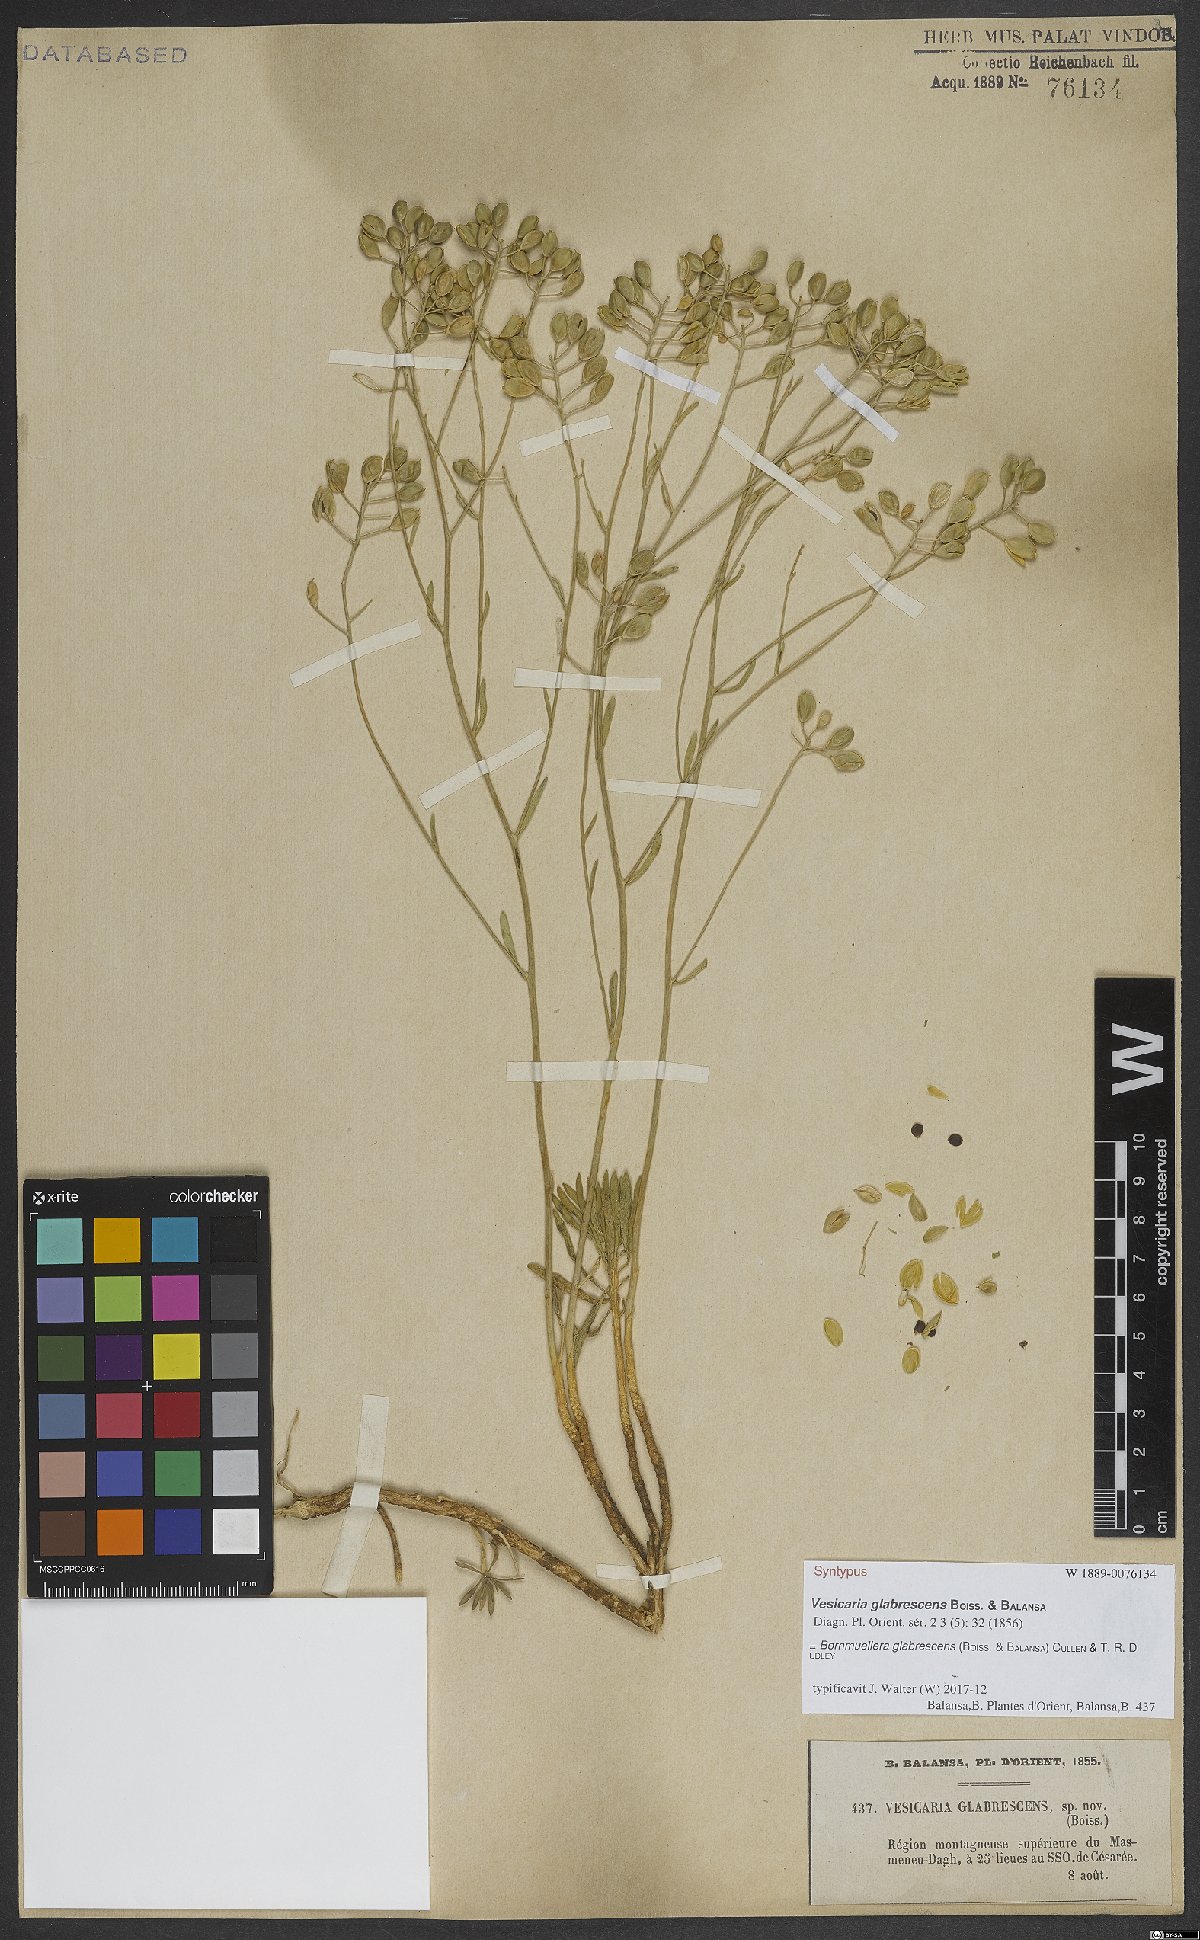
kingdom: Plantae
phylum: Tracheophyta
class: Magnoliopsida
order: Brassicales
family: Brassicaceae
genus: Bornmuellera
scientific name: Bornmuellera glabrescens
